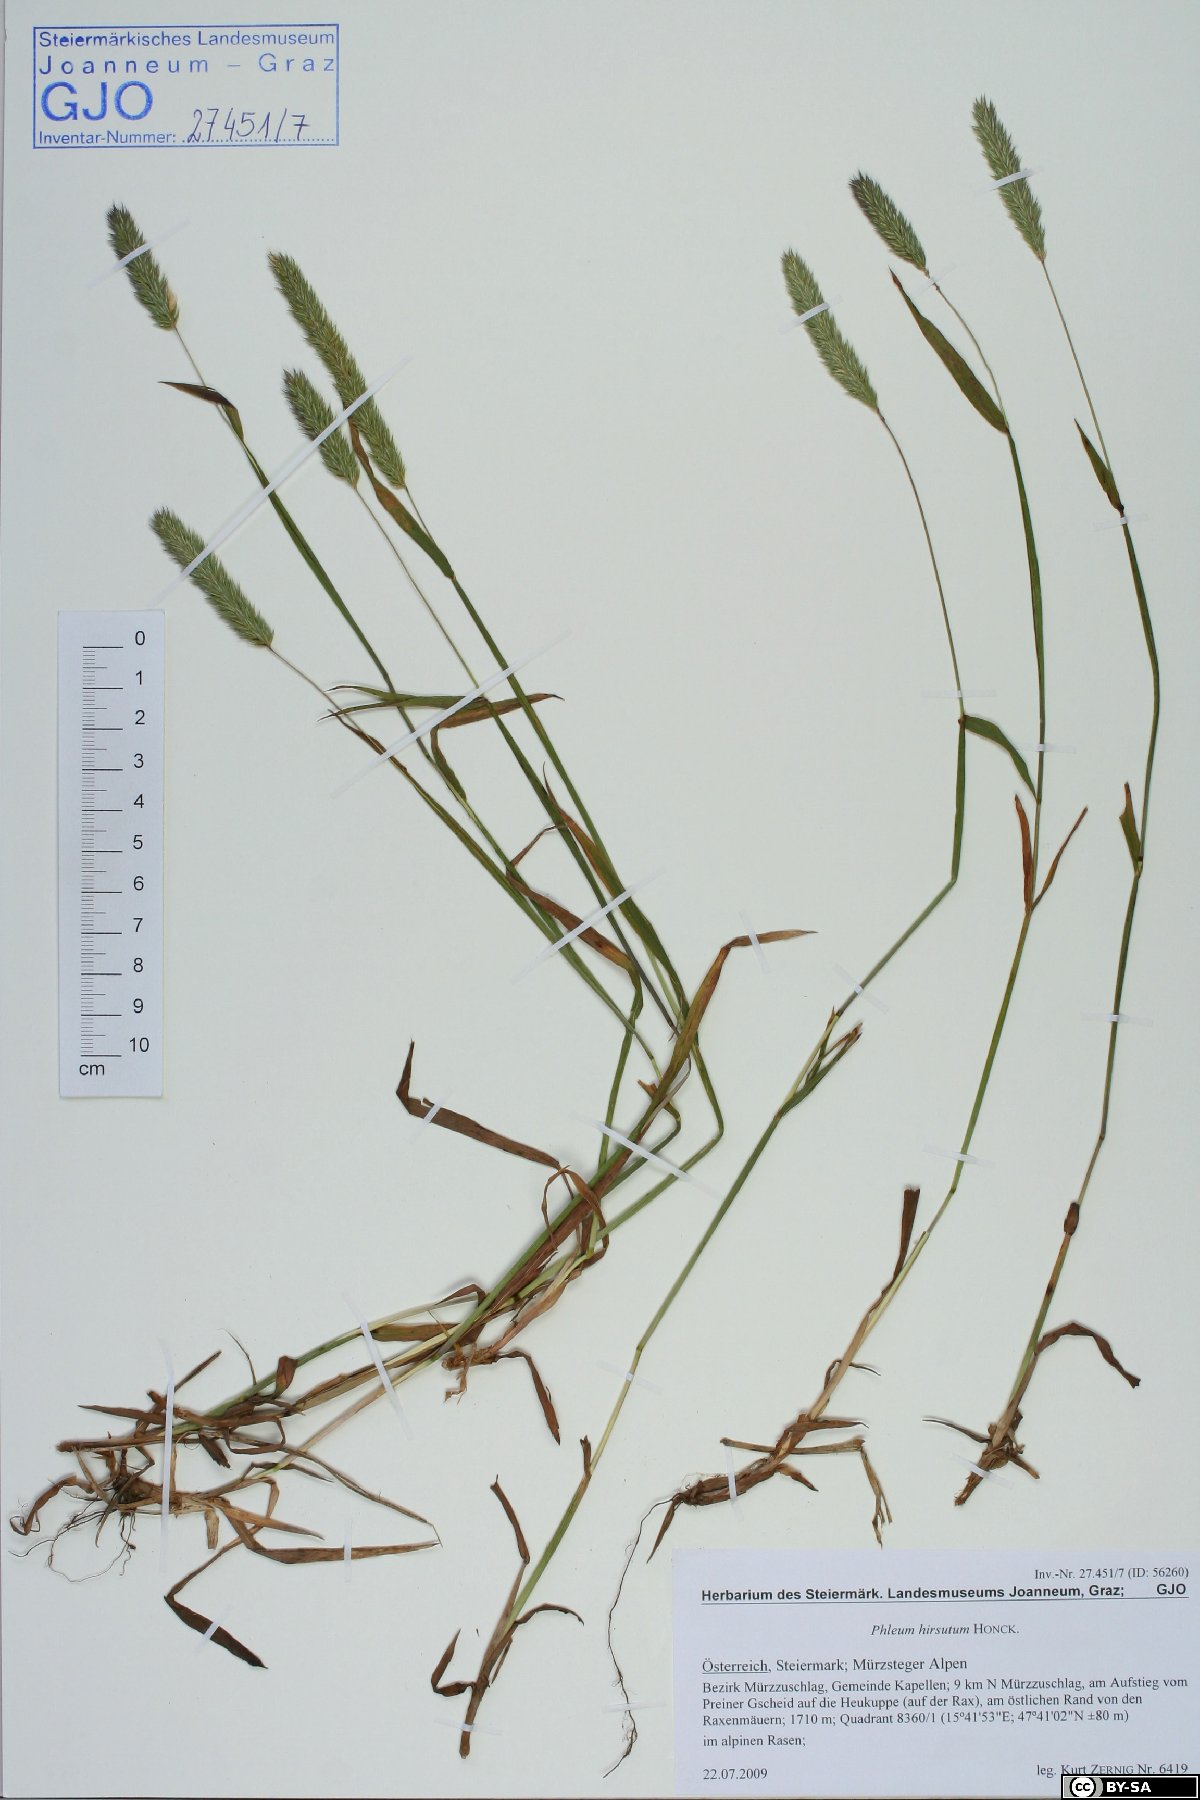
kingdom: Plantae
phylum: Tracheophyta
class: Liliopsida
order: Poales
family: Poaceae
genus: Phleum
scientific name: Phleum hirsutum
